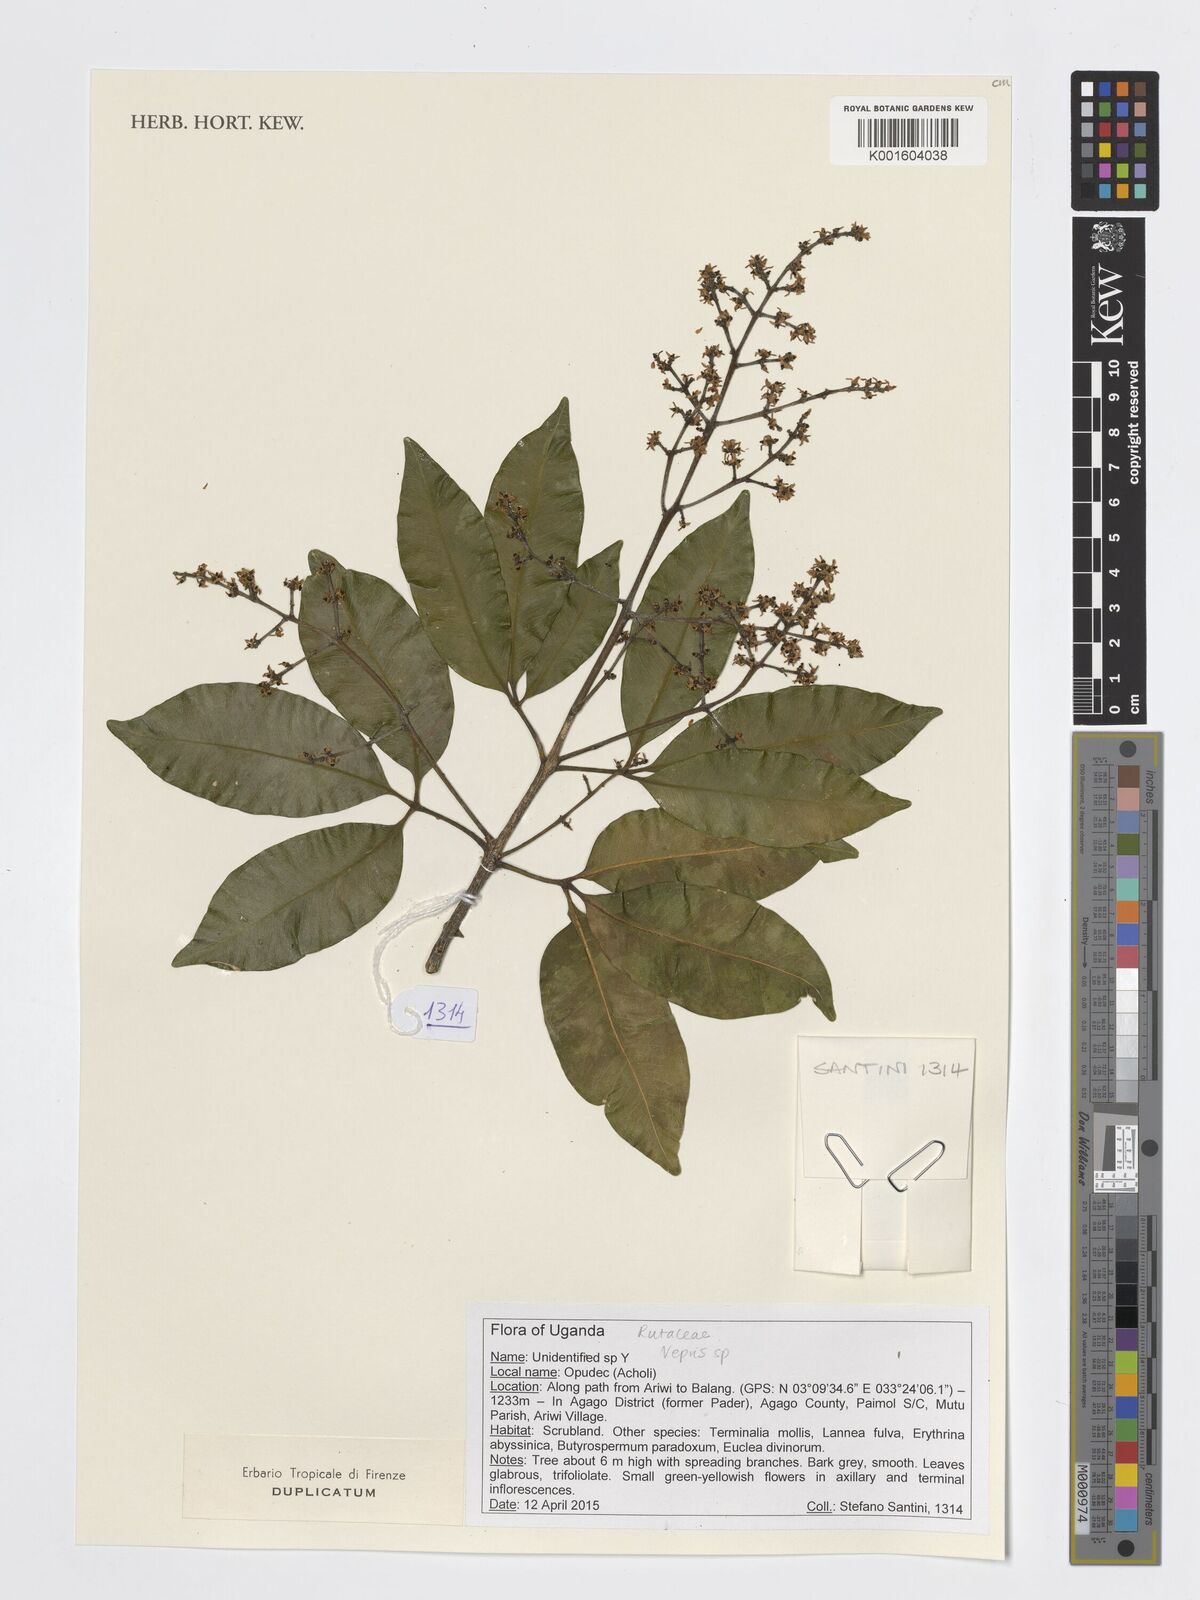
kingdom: Plantae
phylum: Tracheophyta
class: Magnoliopsida
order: Sapindales
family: Rutaceae
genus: Vepris
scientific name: Vepris
